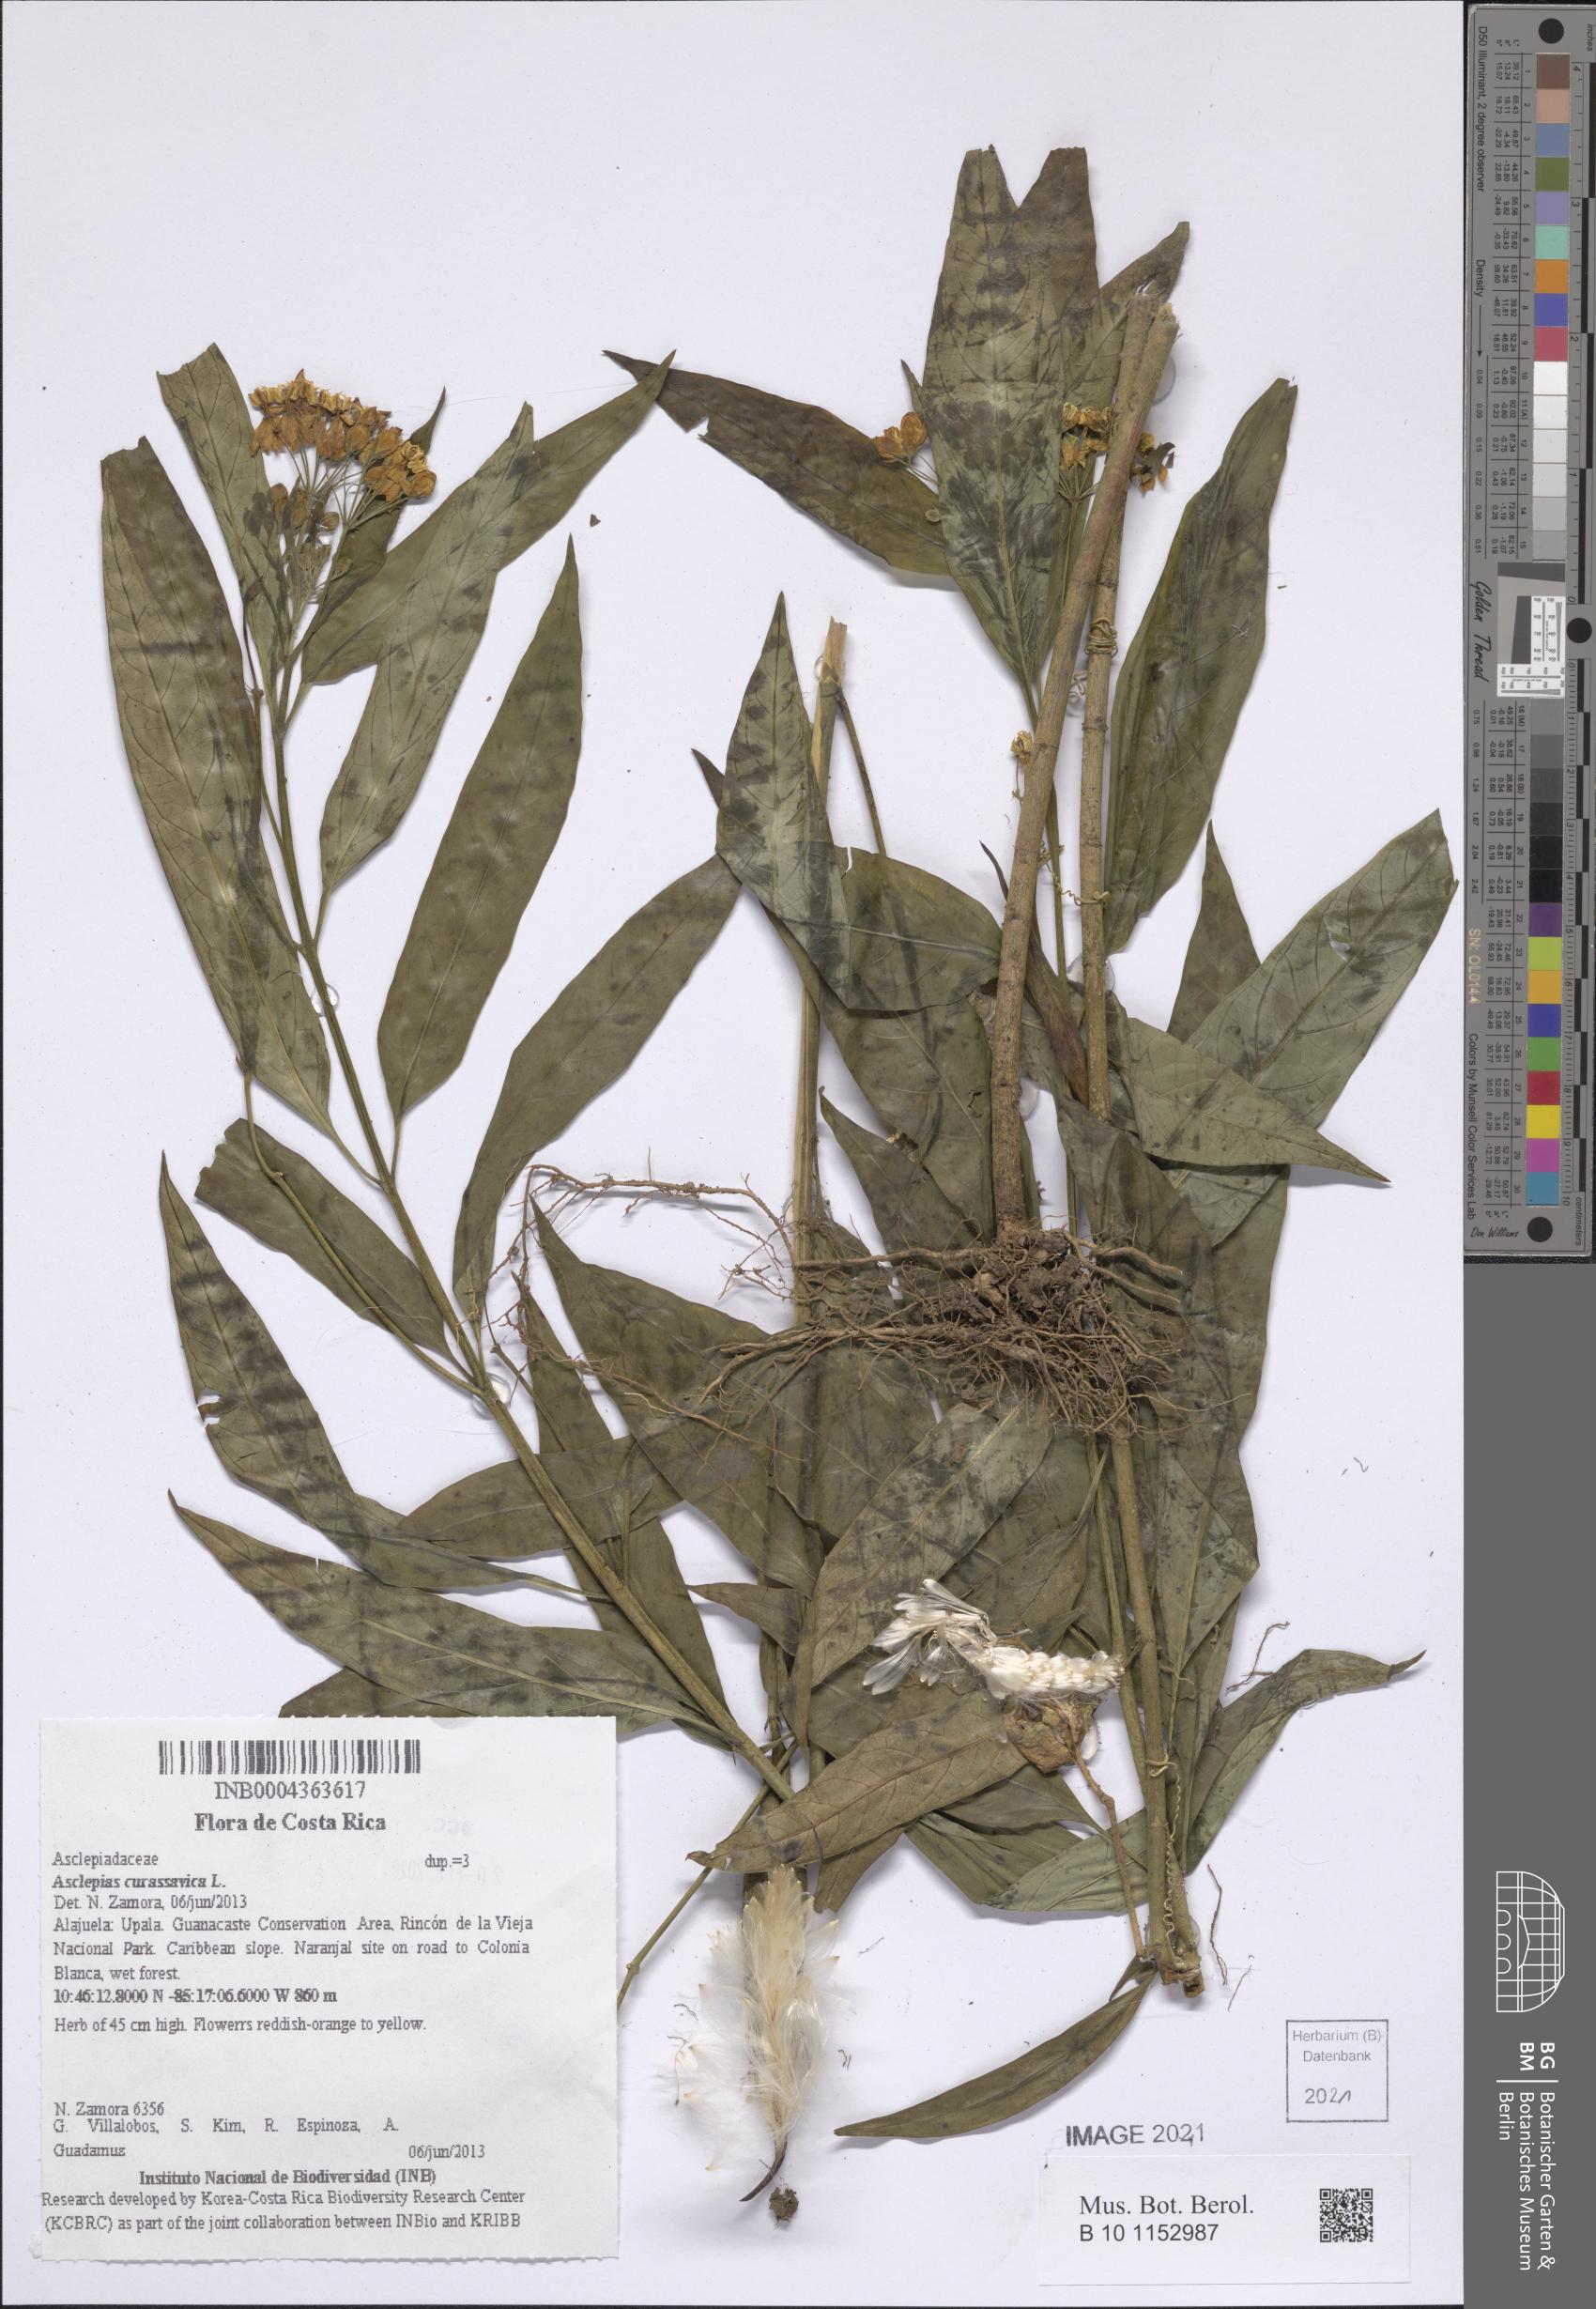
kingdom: Plantae
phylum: Tracheophyta
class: Magnoliopsida
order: Gentianales
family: Apocynaceae
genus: Asclepias
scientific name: Asclepias curassavica
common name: Bloodflower
